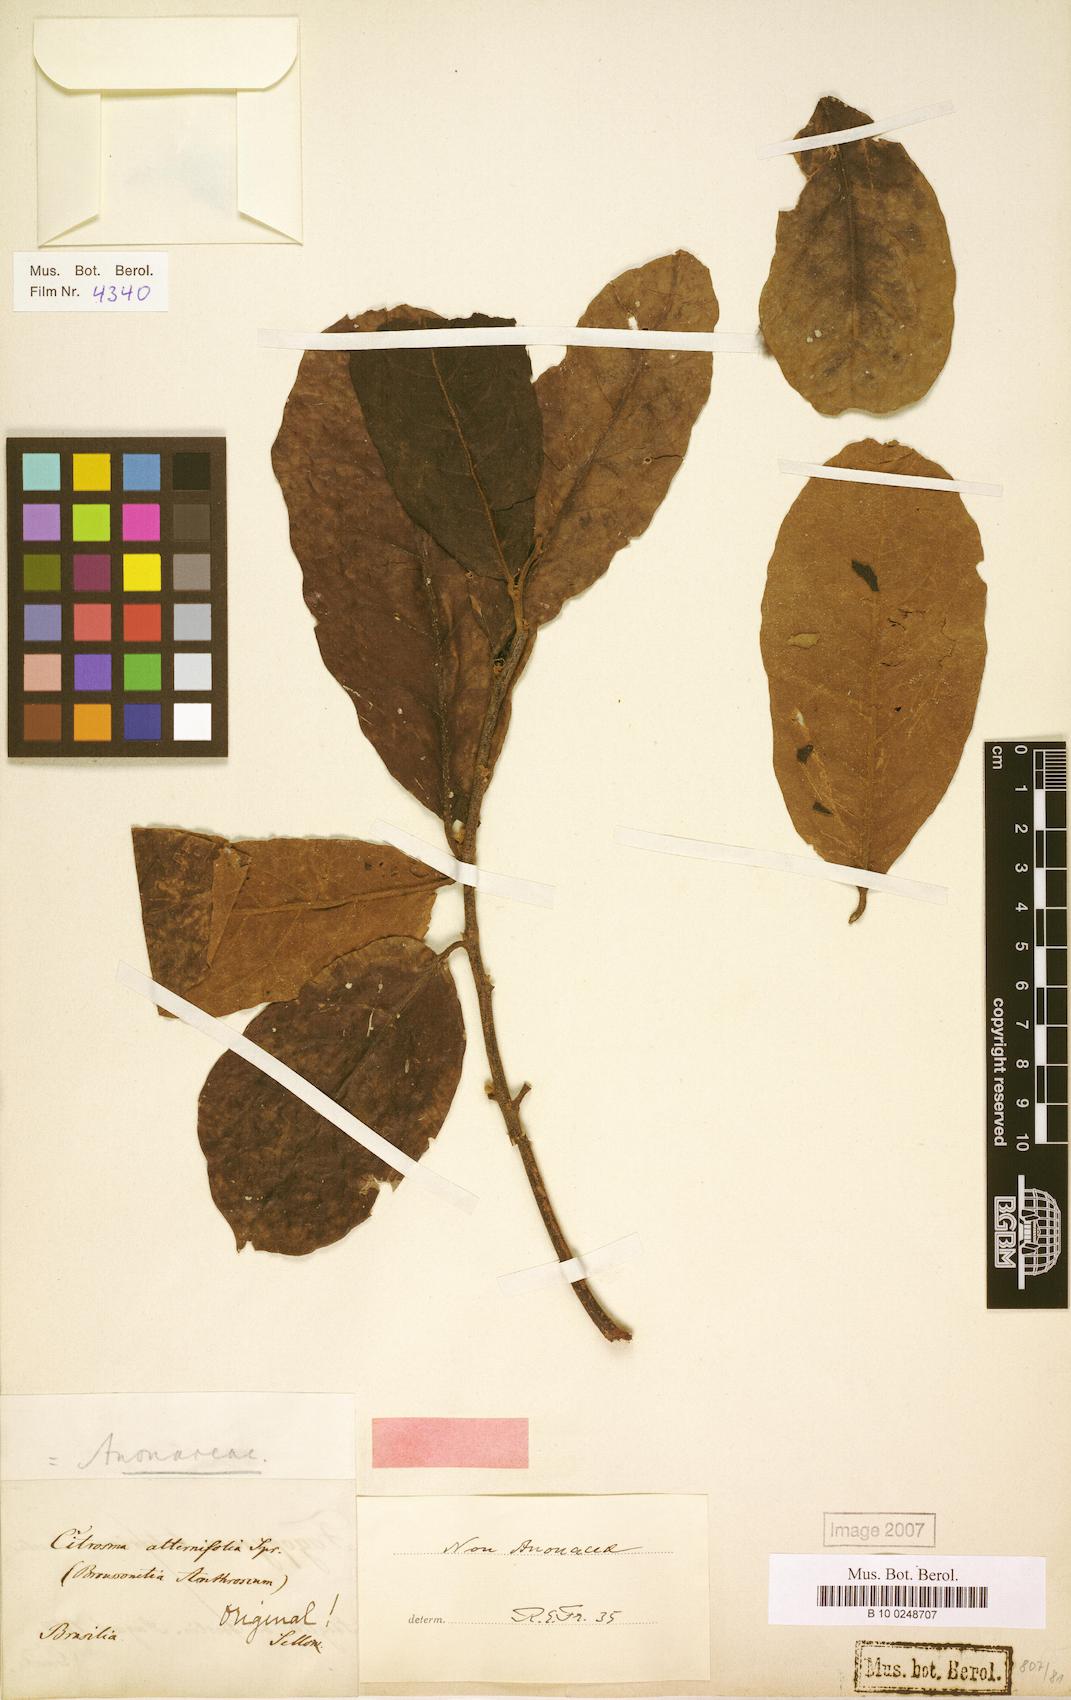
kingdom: Plantae
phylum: Tracheophyta
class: Magnoliopsida
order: Laurales
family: Siparunaceae
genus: Siparuna
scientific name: Siparuna alternifolia
